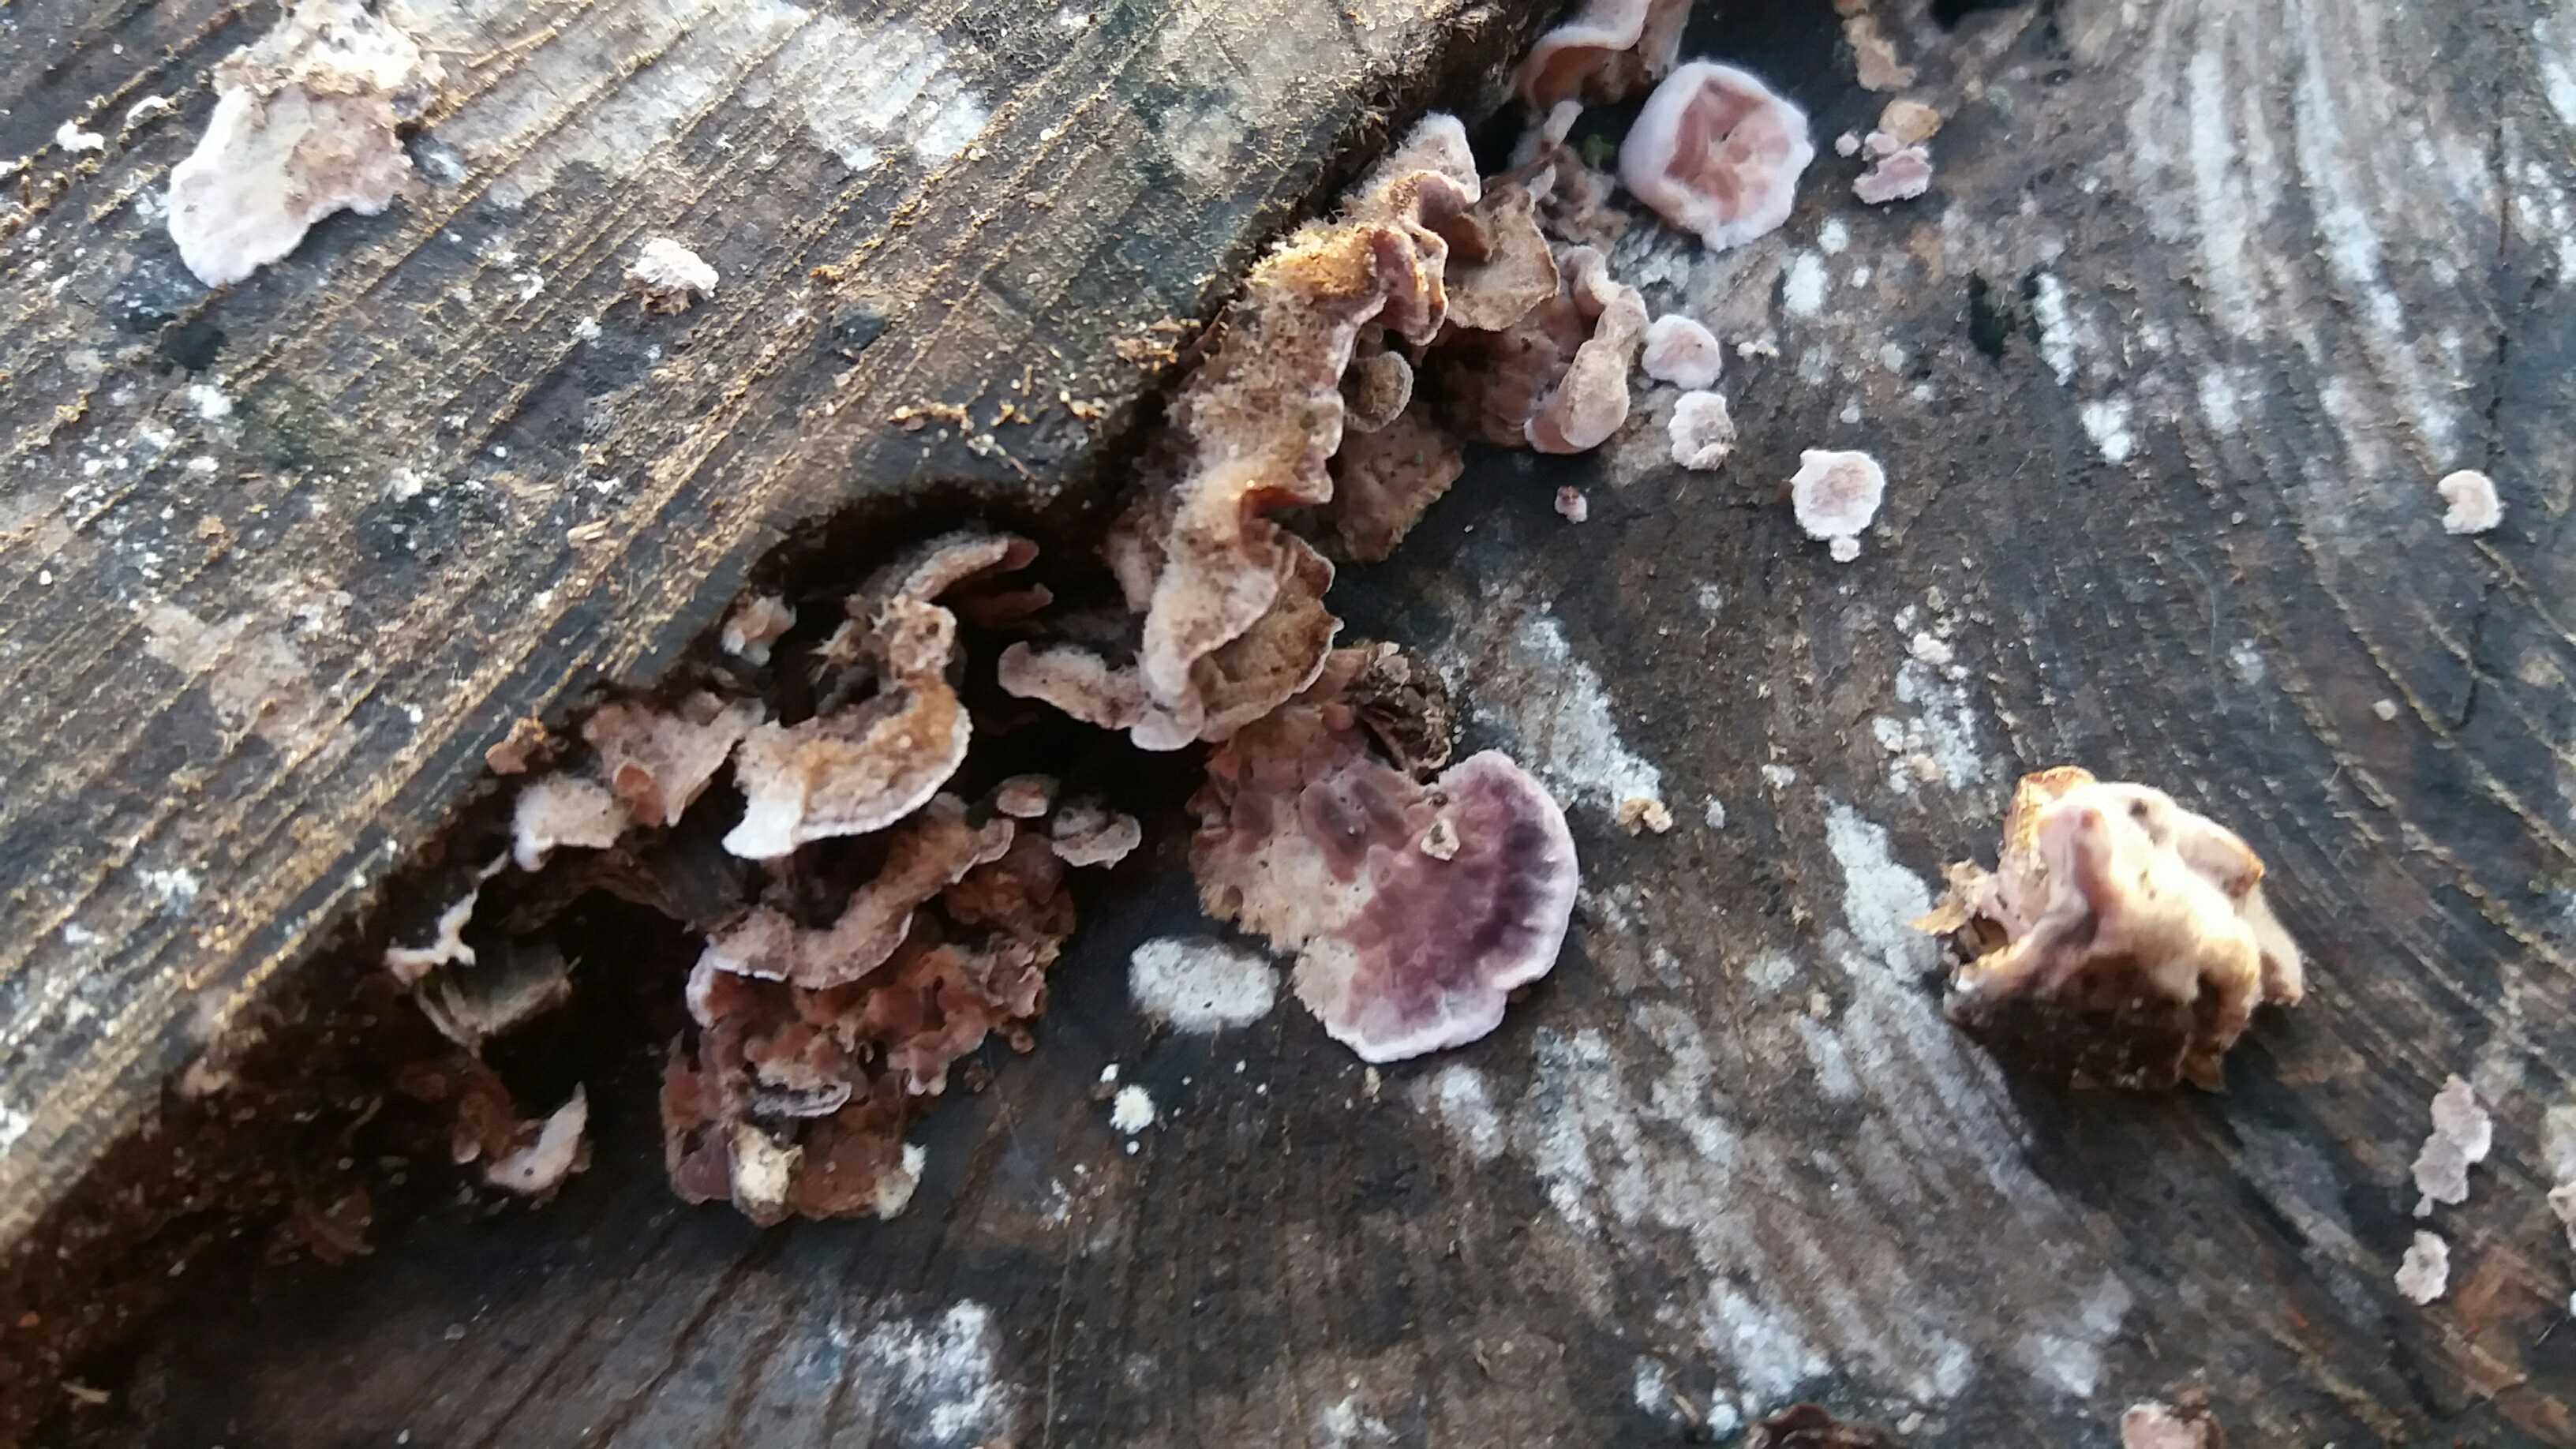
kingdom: Fungi
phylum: Basidiomycota
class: Agaricomycetes
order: Agaricales
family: Cyphellaceae
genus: Chondrostereum
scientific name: Chondrostereum purpureum
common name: purpurlædersvamp
